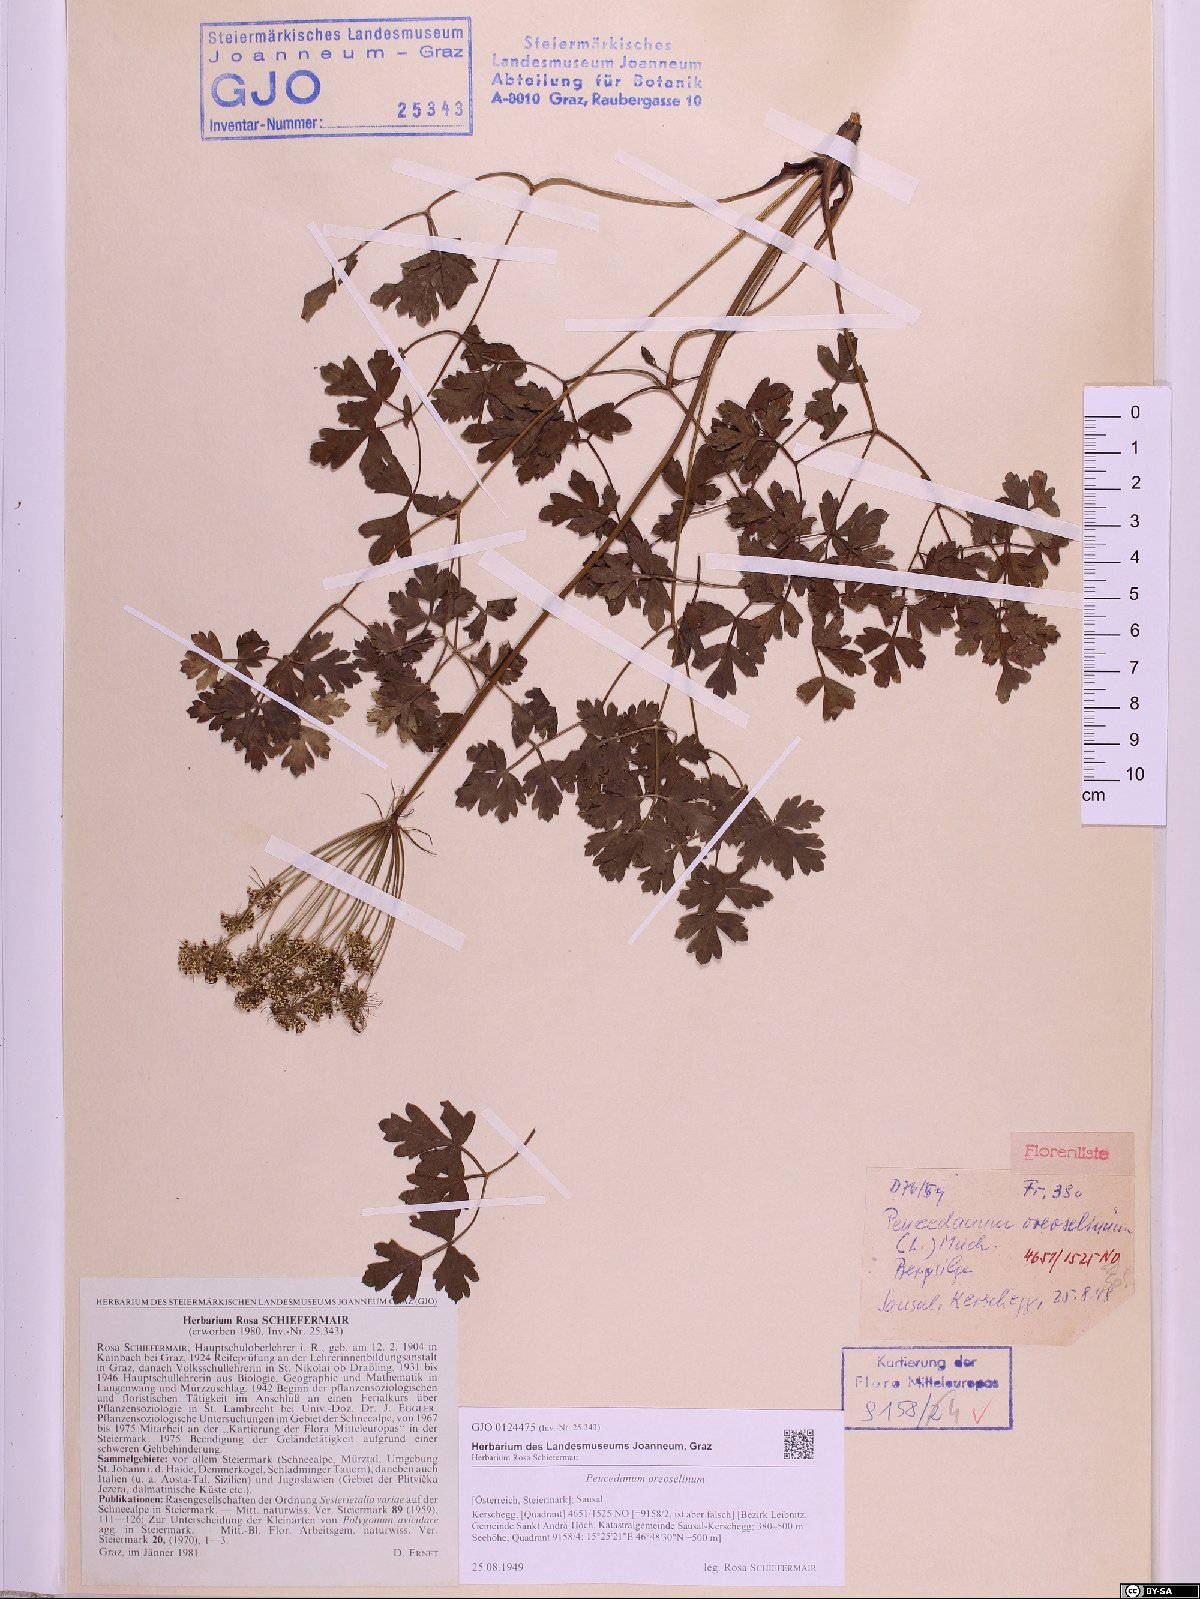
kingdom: Plantae
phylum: Tracheophyta
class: Magnoliopsida
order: Apiales
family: Apiaceae
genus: Oreoselinum
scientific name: Oreoselinum nigrum
